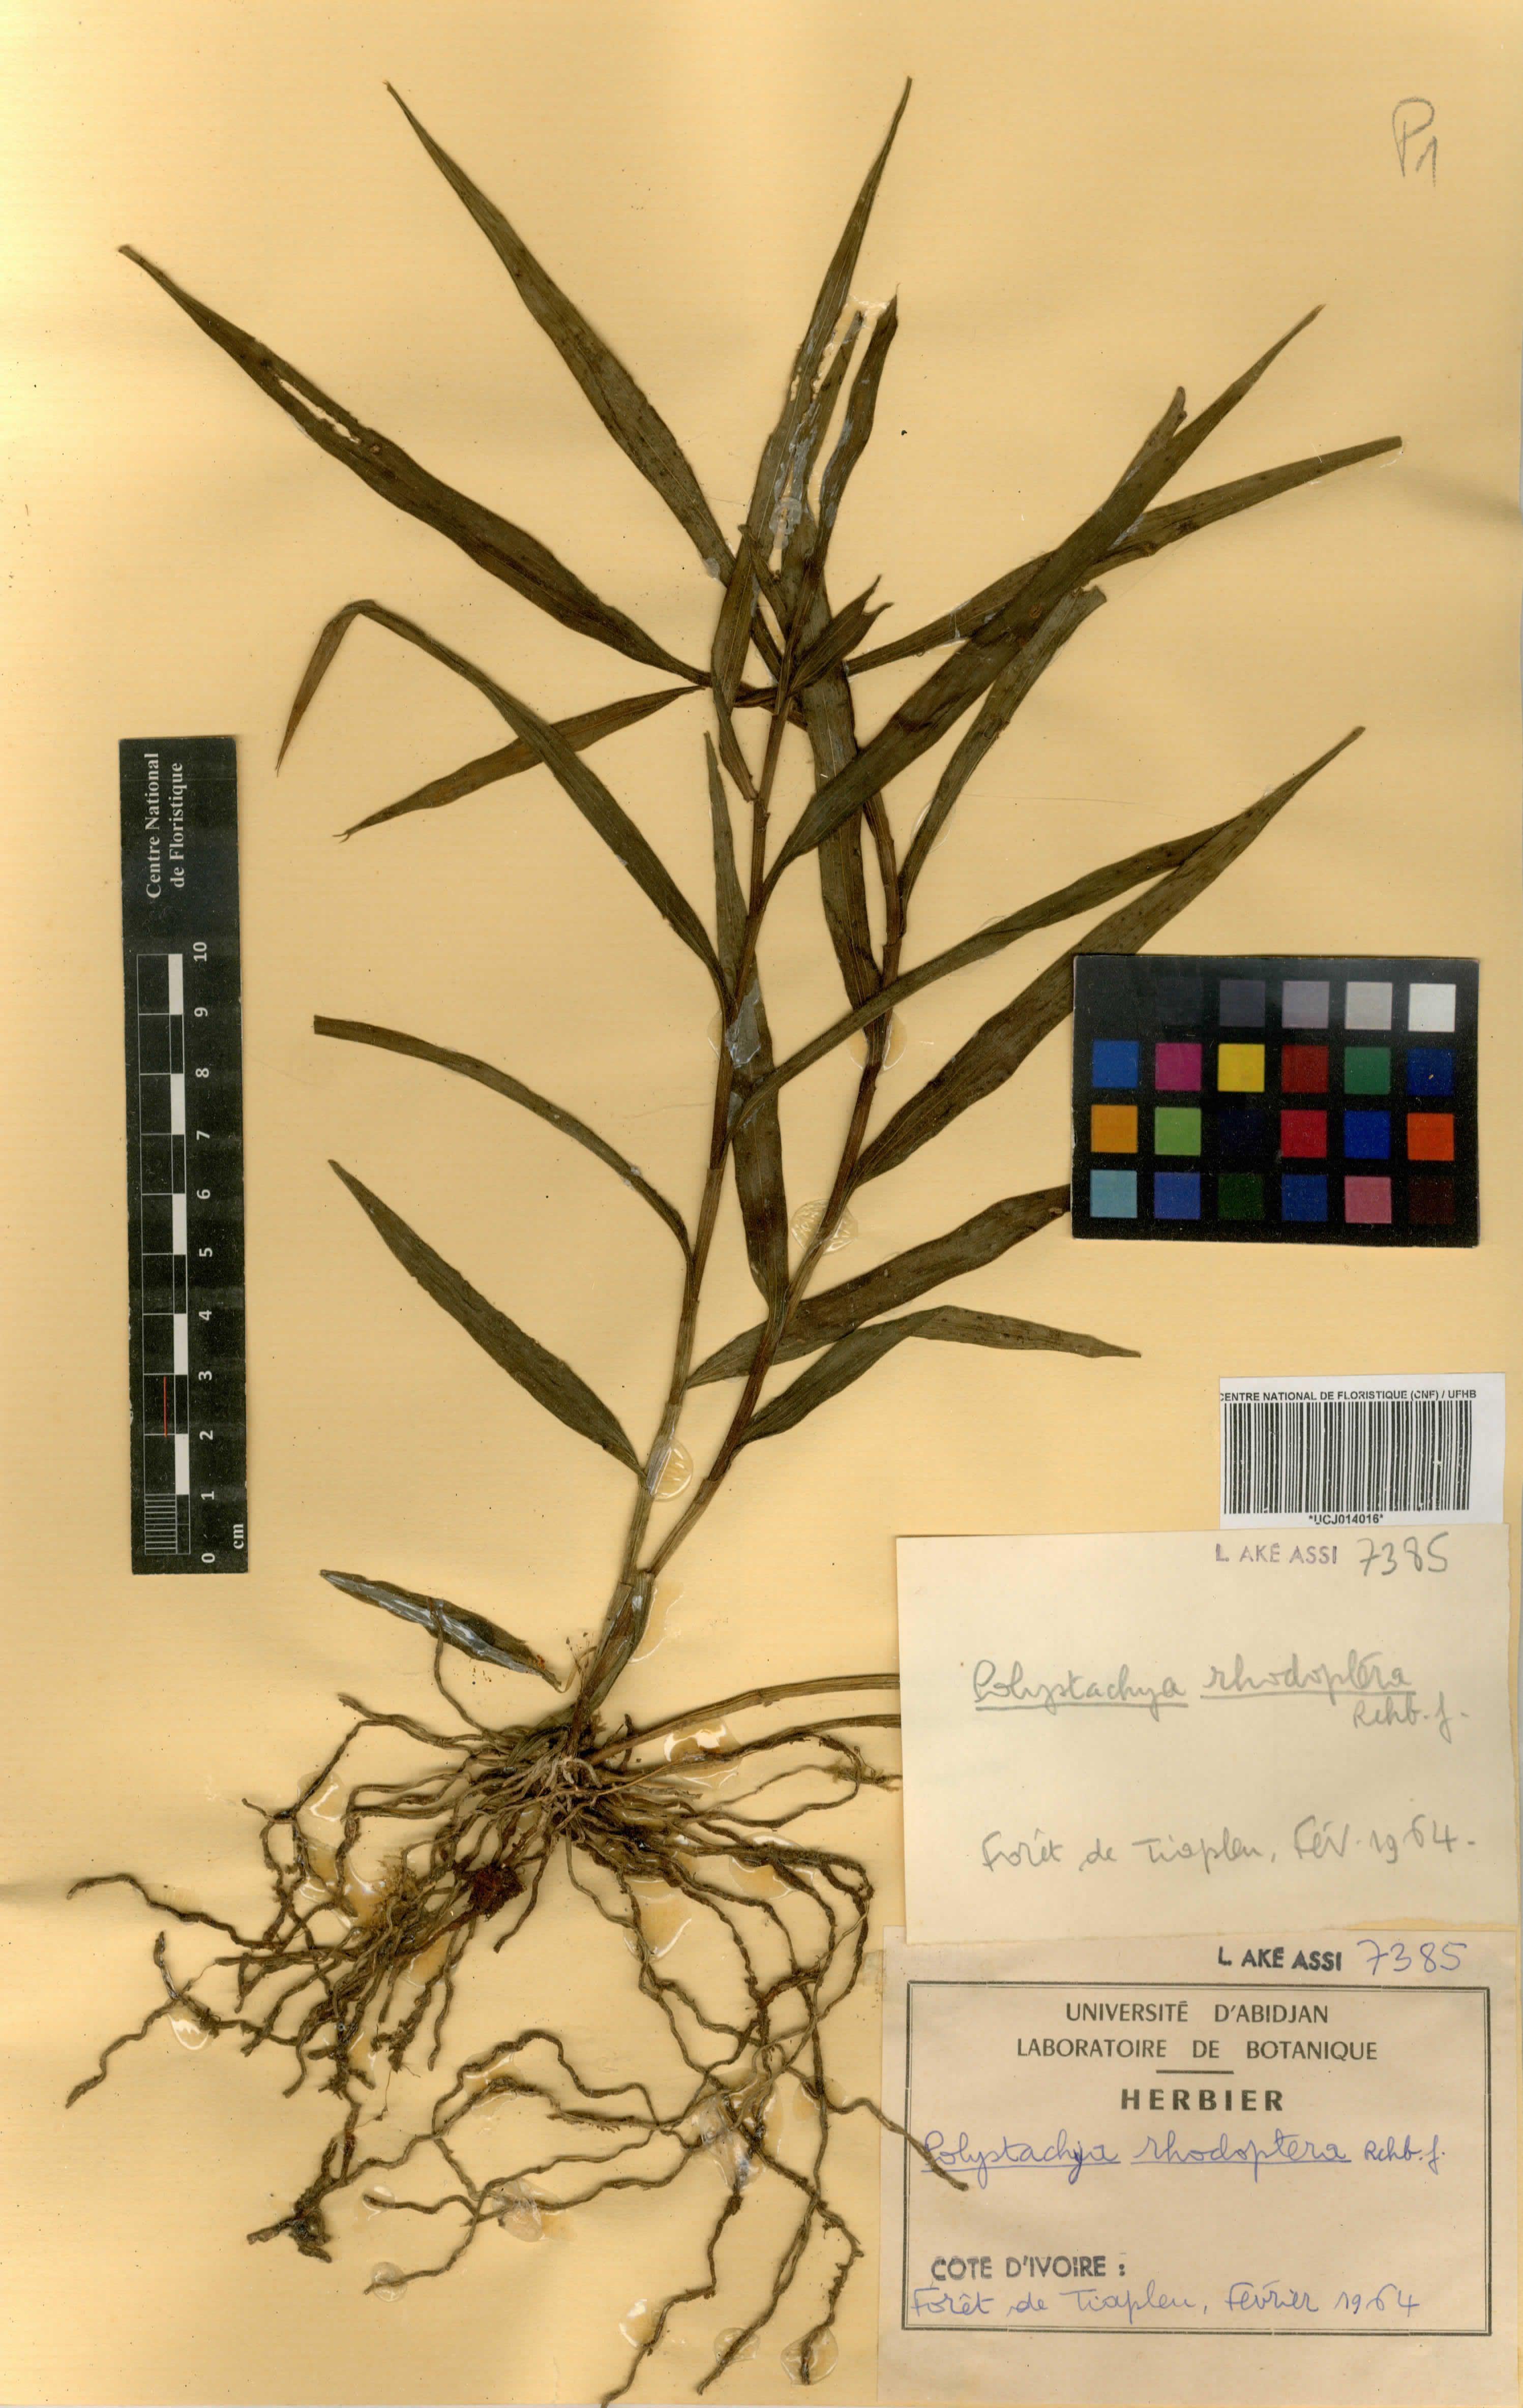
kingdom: Plantae
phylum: Tracheophyta
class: Liliopsida
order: Asparagales
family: Orchidaceae
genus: Polystachya
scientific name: Polystachya rhodoptera
